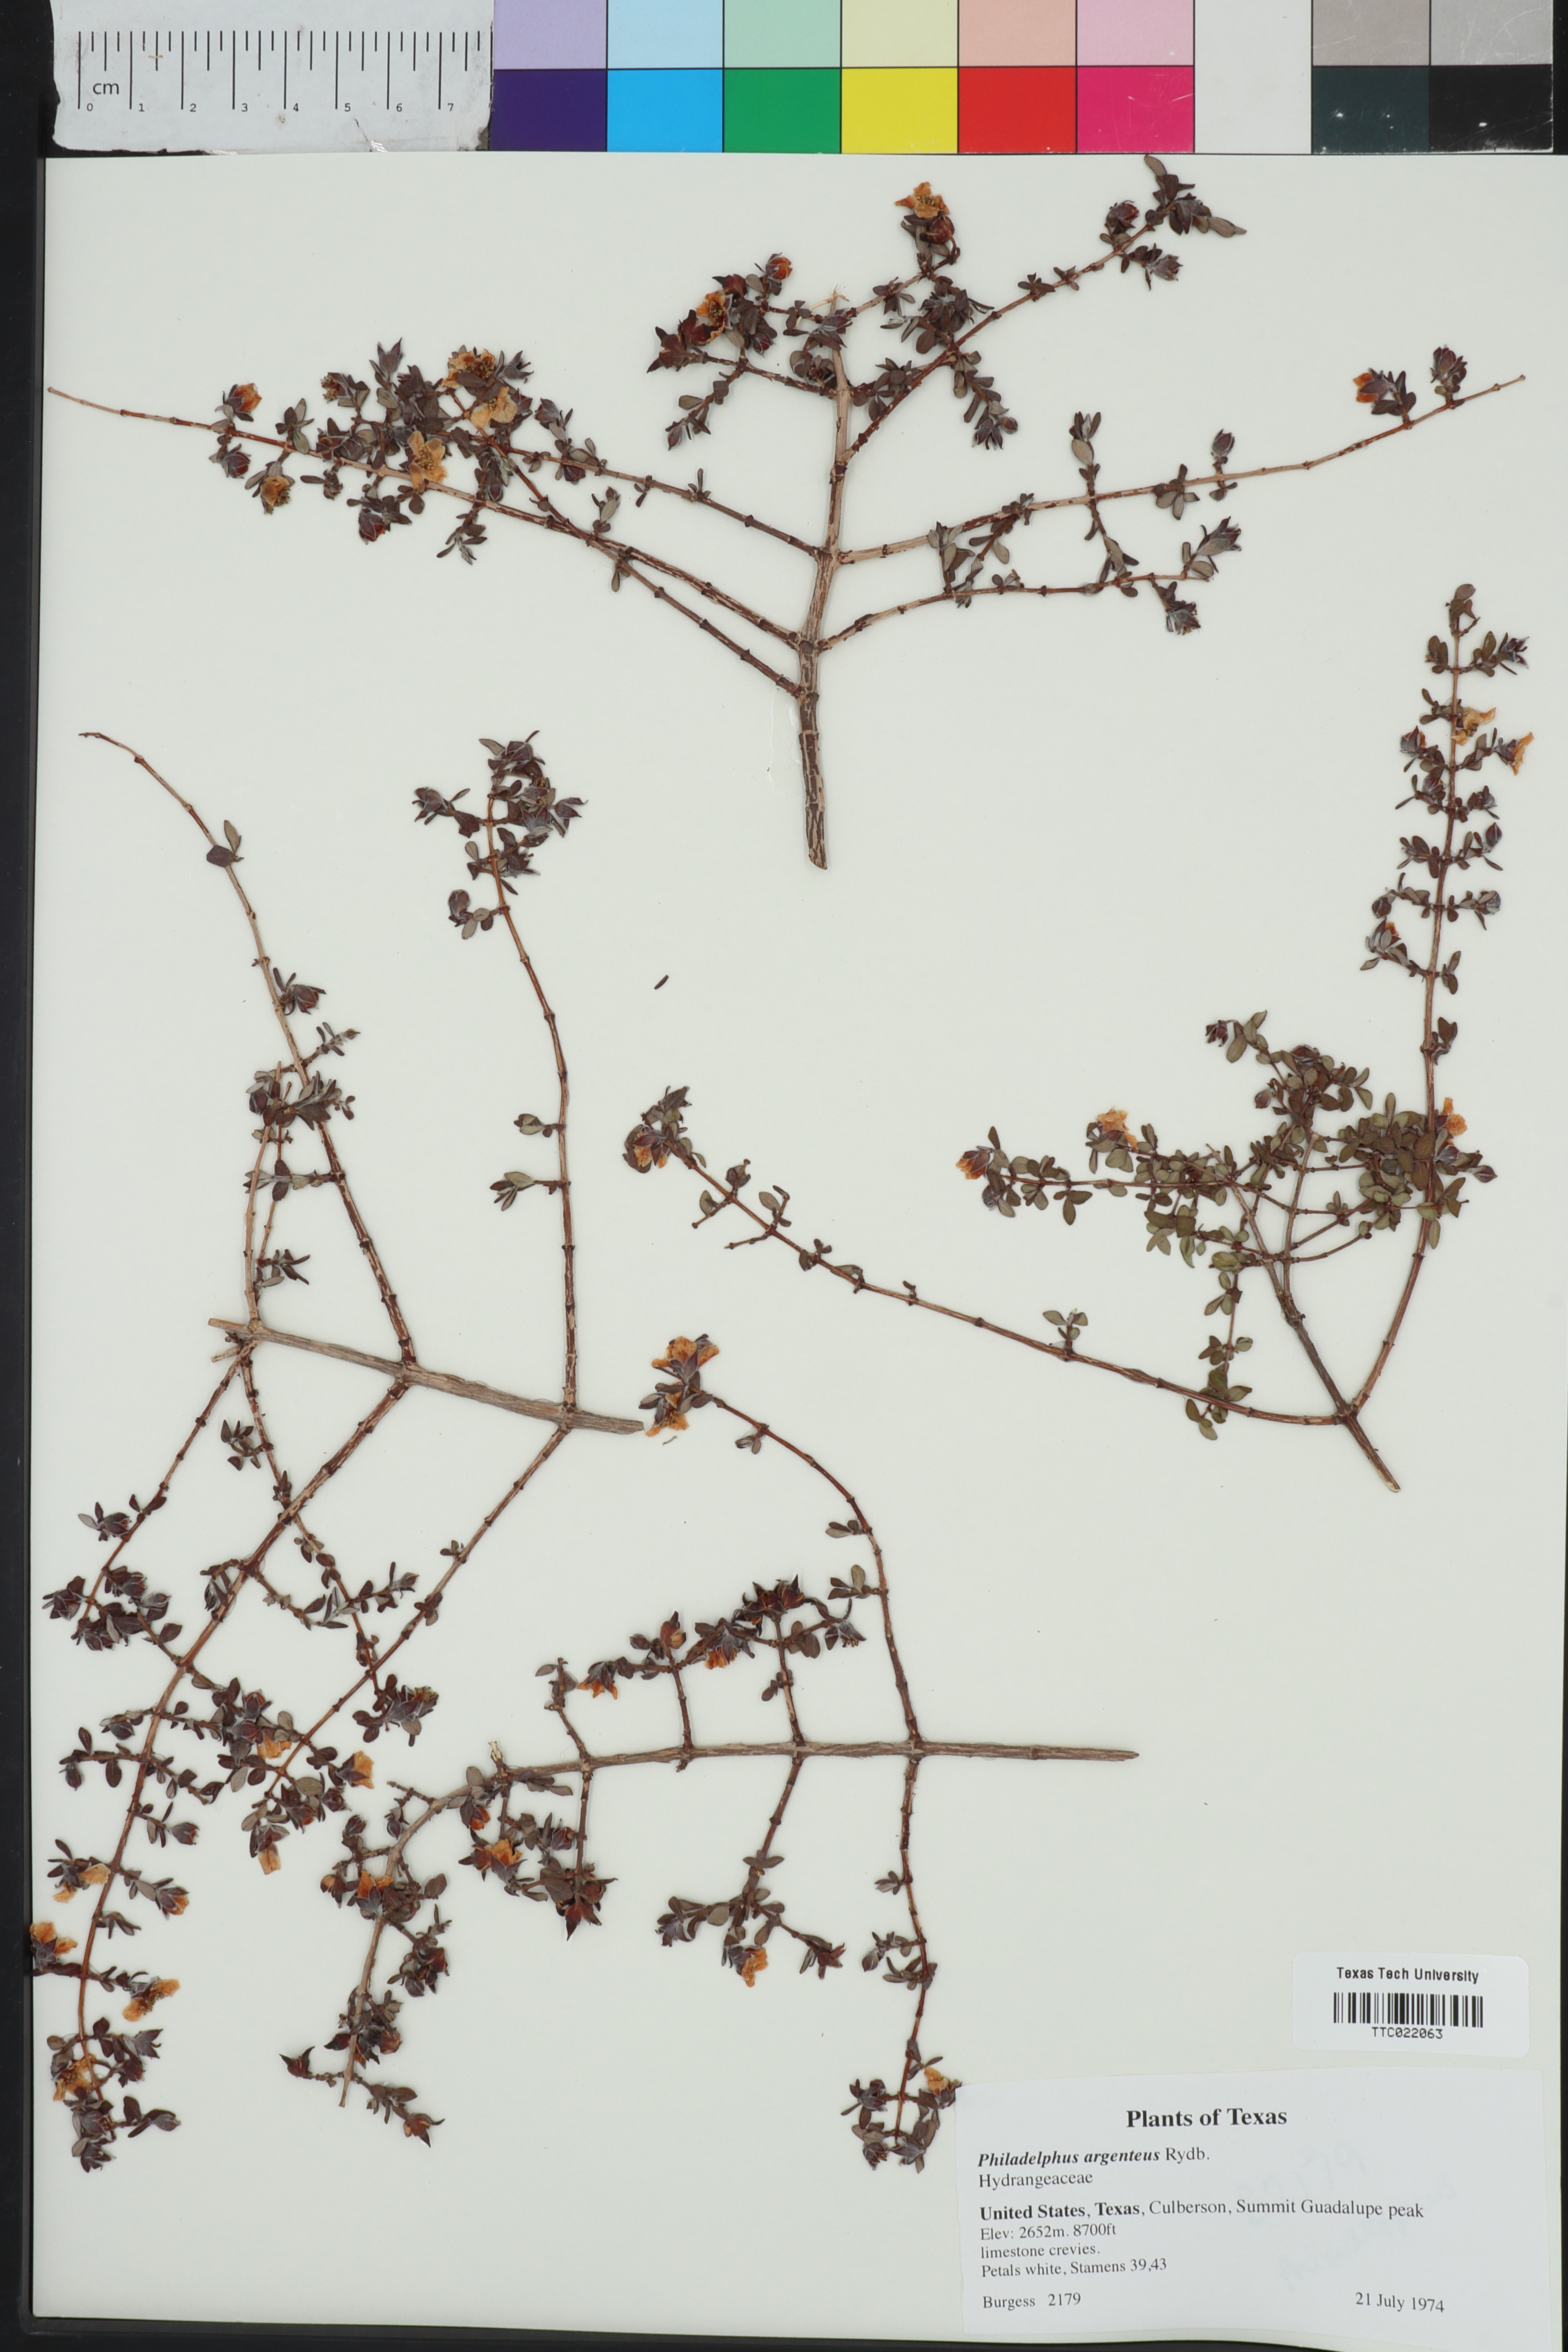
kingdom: Plantae
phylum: Tracheophyta
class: Magnoliopsida
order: Cornales
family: Hydrangeaceae
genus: Philadelphus
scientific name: Philadelphus microphyllus
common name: Desert mock orange
